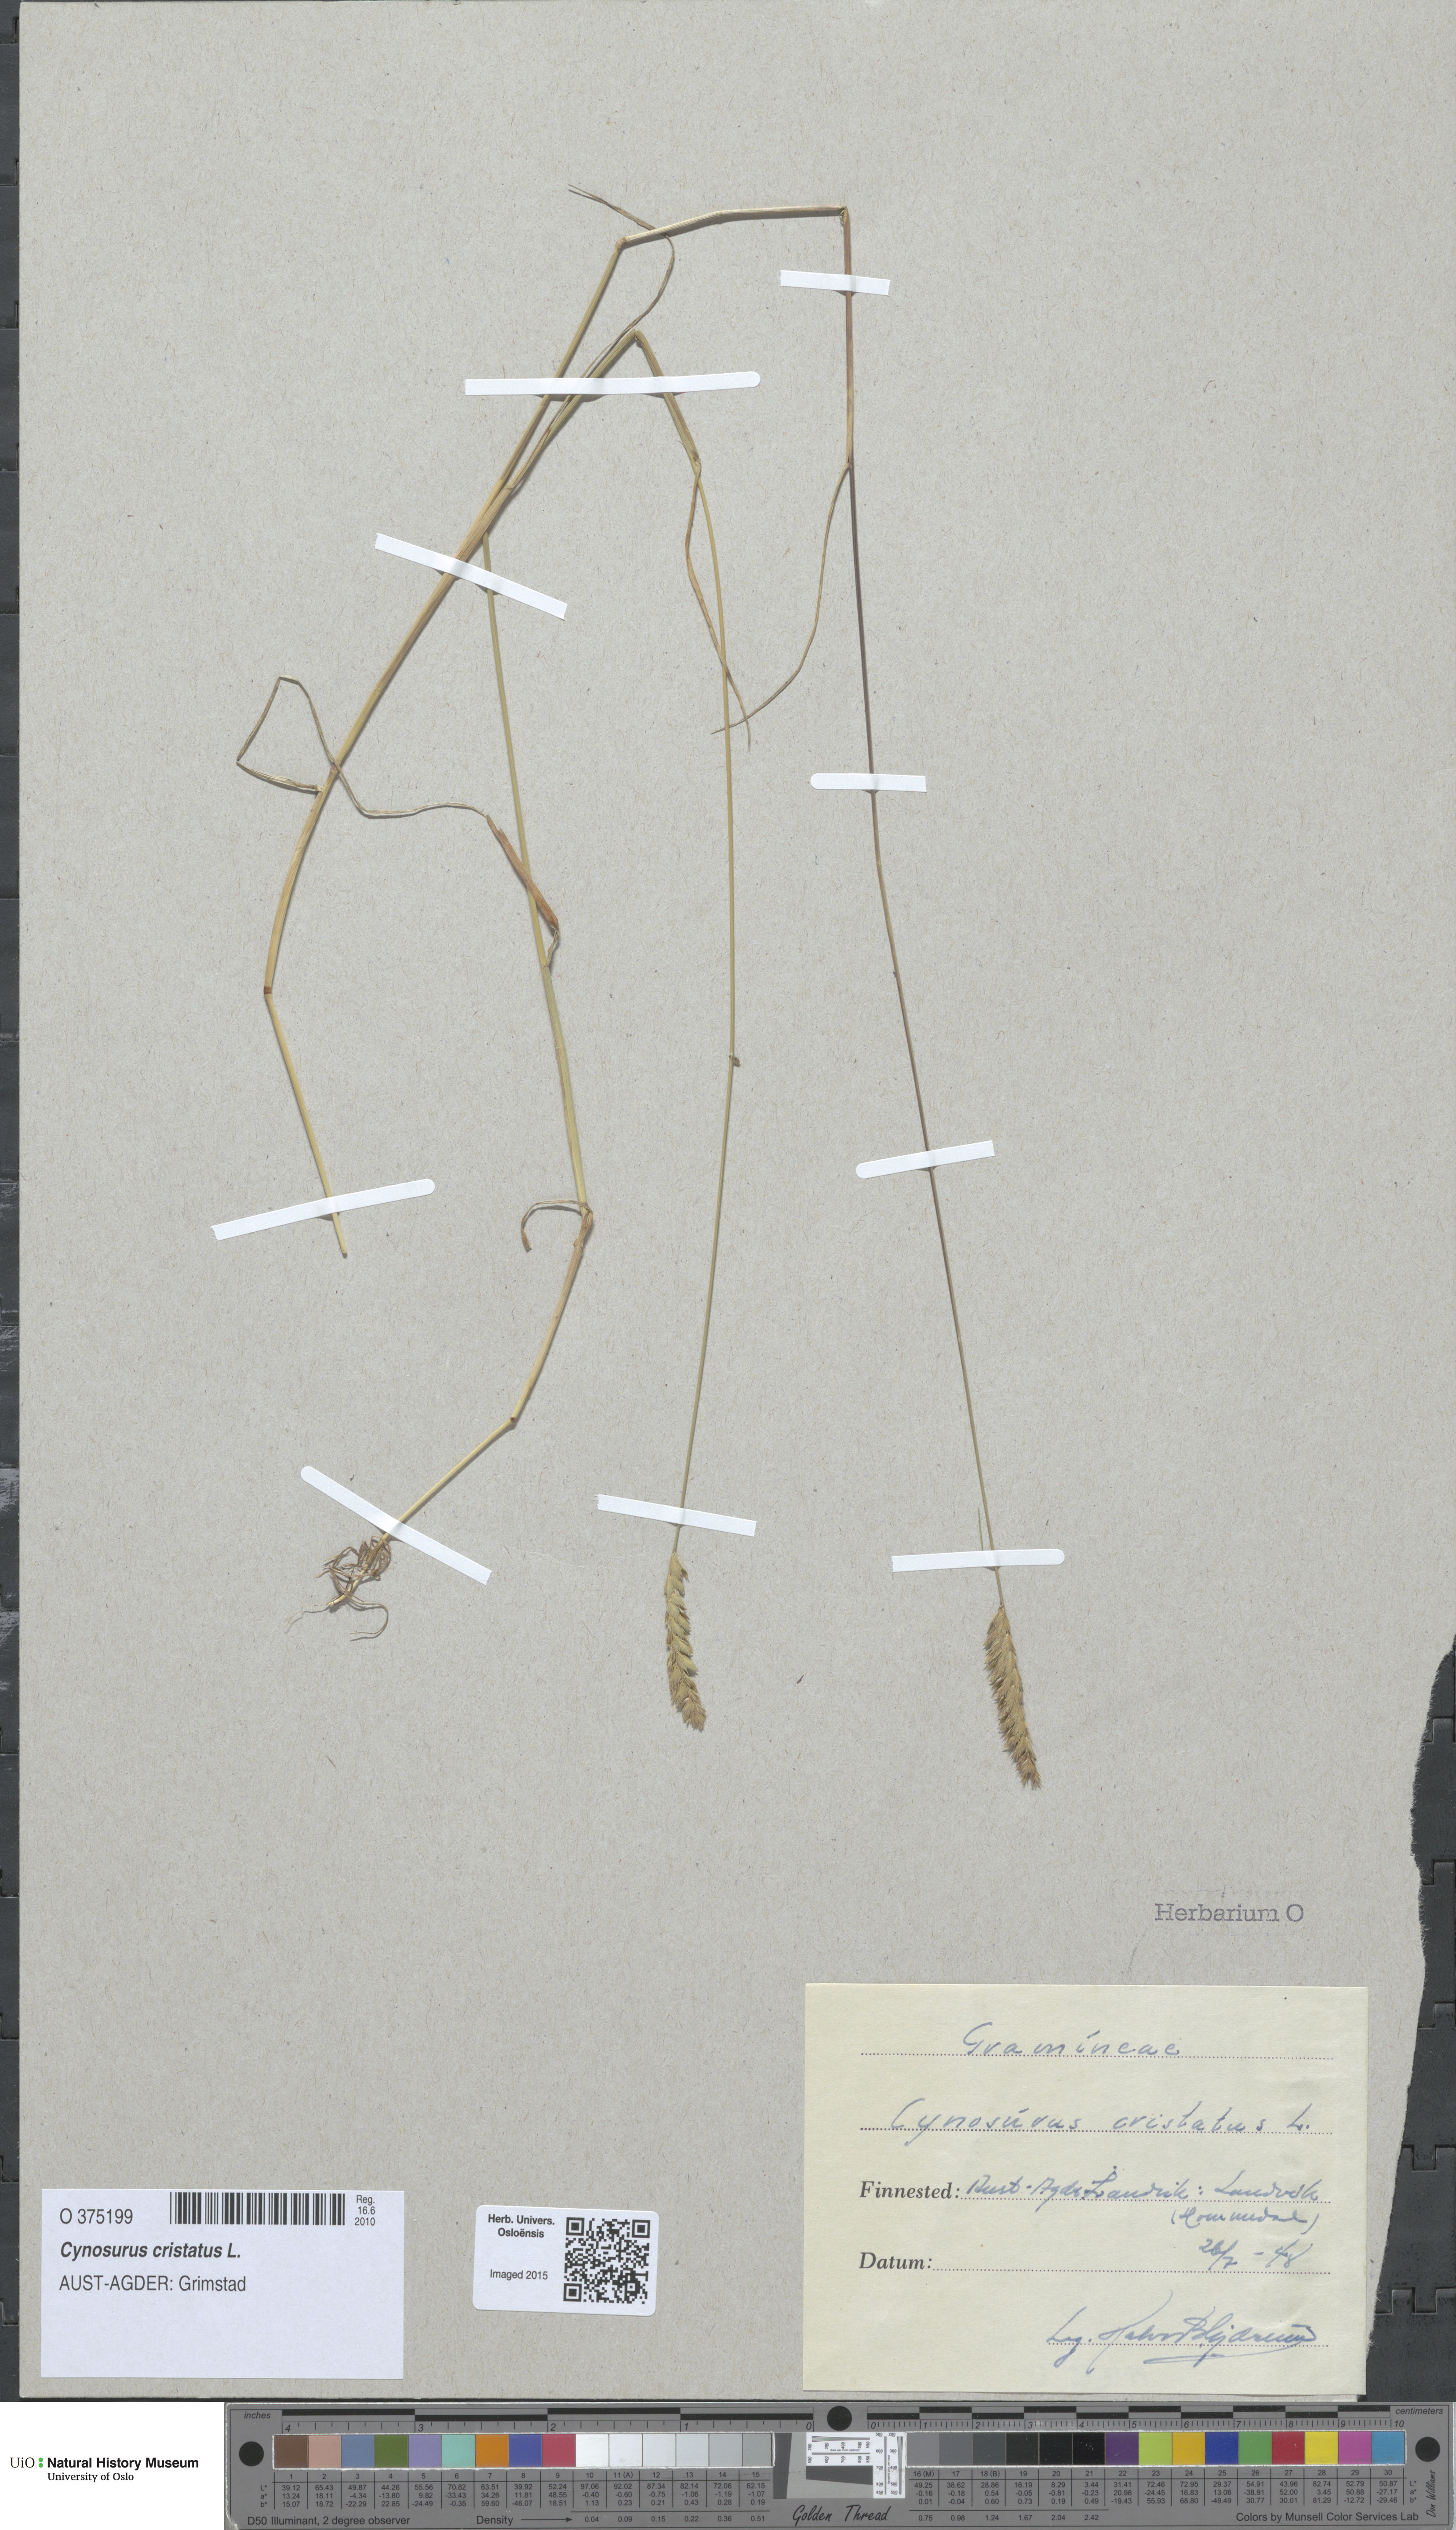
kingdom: Plantae
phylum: Tracheophyta
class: Liliopsida
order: Poales
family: Poaceae
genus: Cynosurus
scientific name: Cynosurus cristatus
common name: Crested dog's-tail
